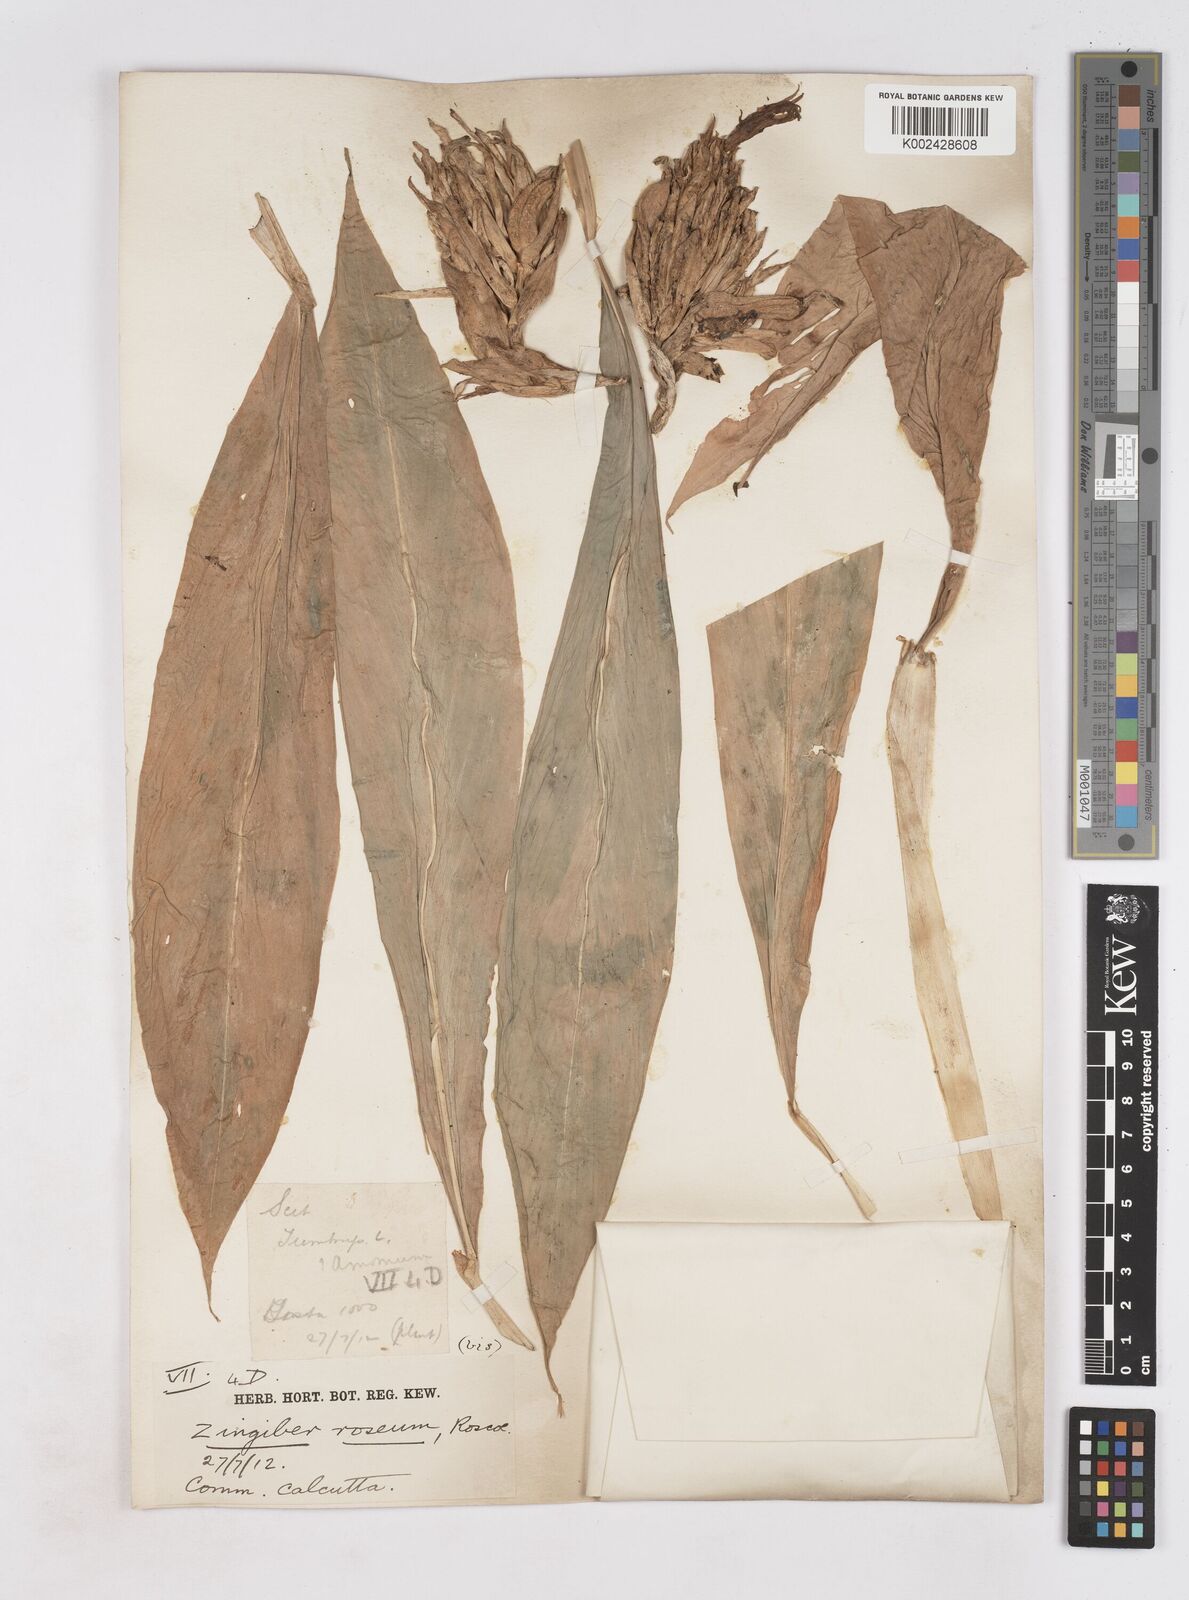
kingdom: Plantae
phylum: Tracheophyta
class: Liliopsida
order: Zingiberales
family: Zingiberaceae
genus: Zingiber
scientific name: Zingiber roseum
